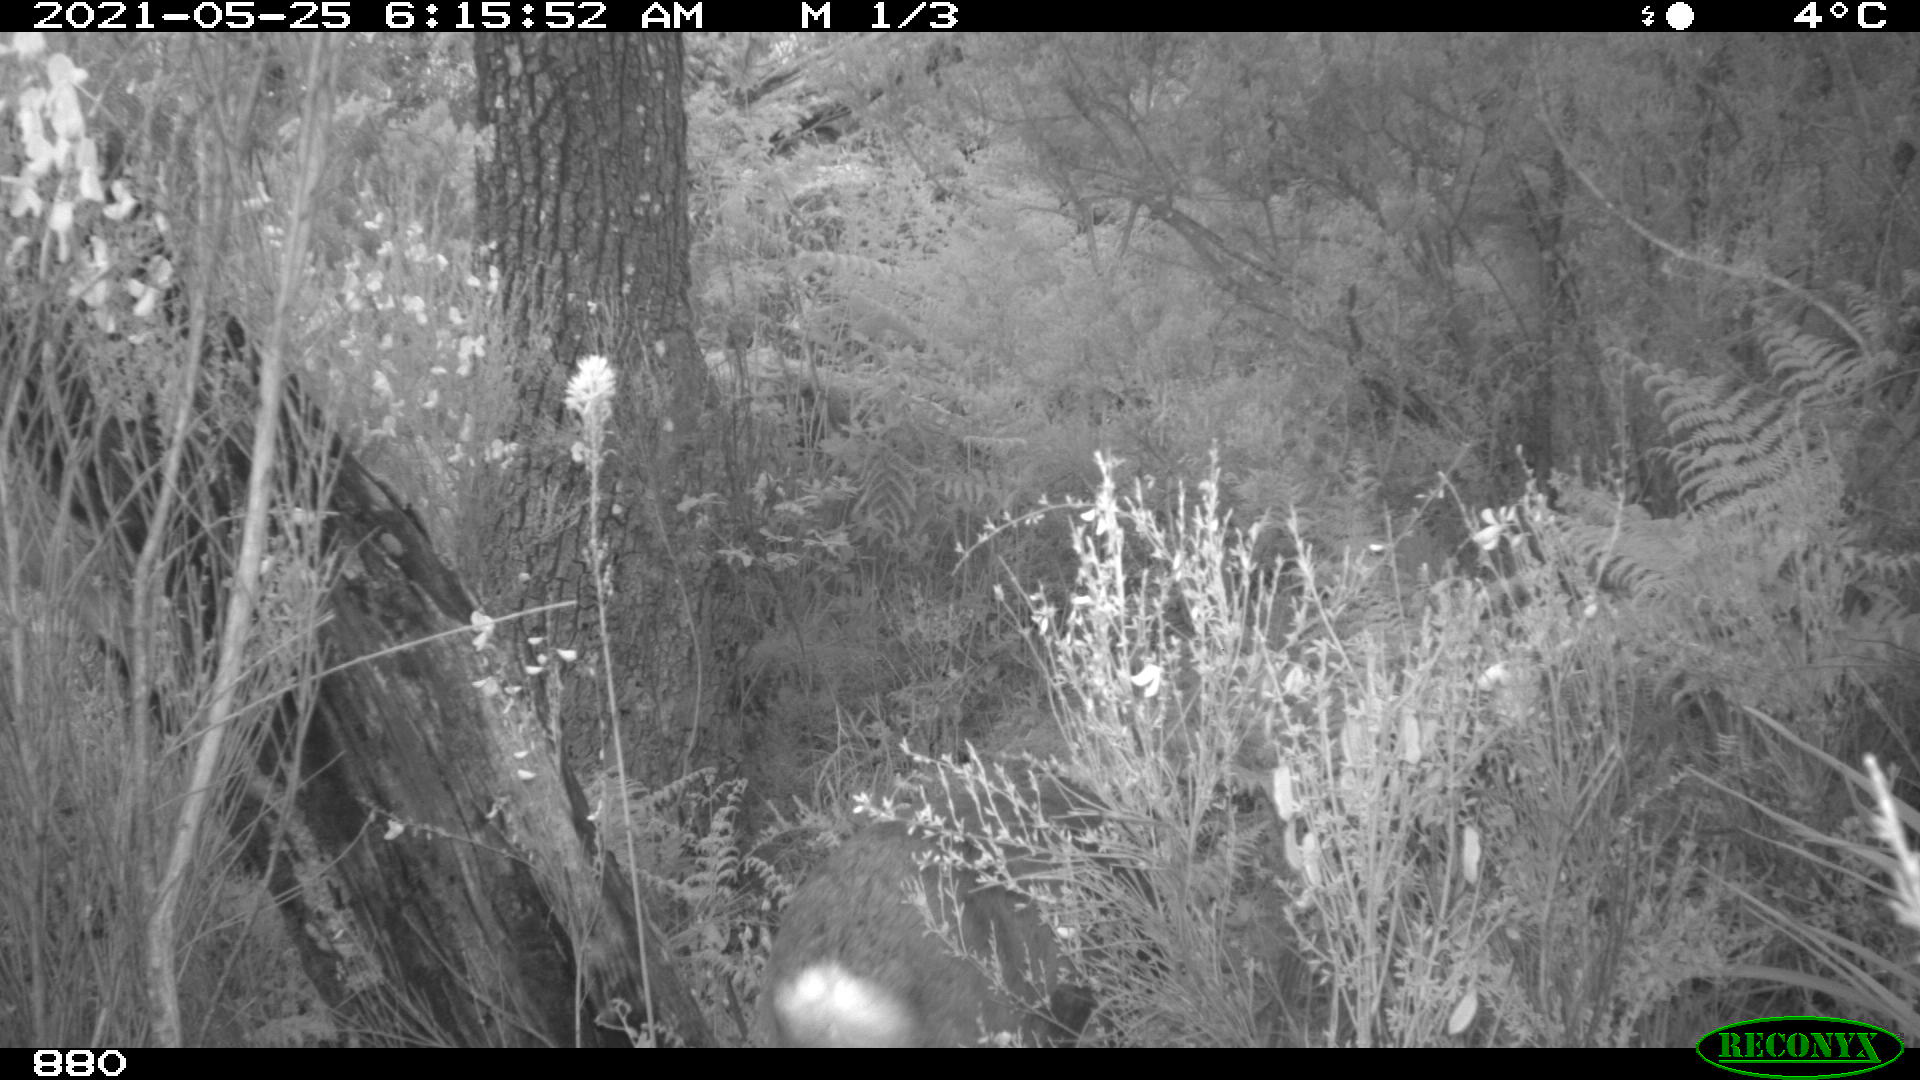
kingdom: Animalia
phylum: Chordata
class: Mammalia
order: Artiodactyla
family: Cervidae
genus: Capreolus
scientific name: Capreolus capreolus
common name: Western roe deer
